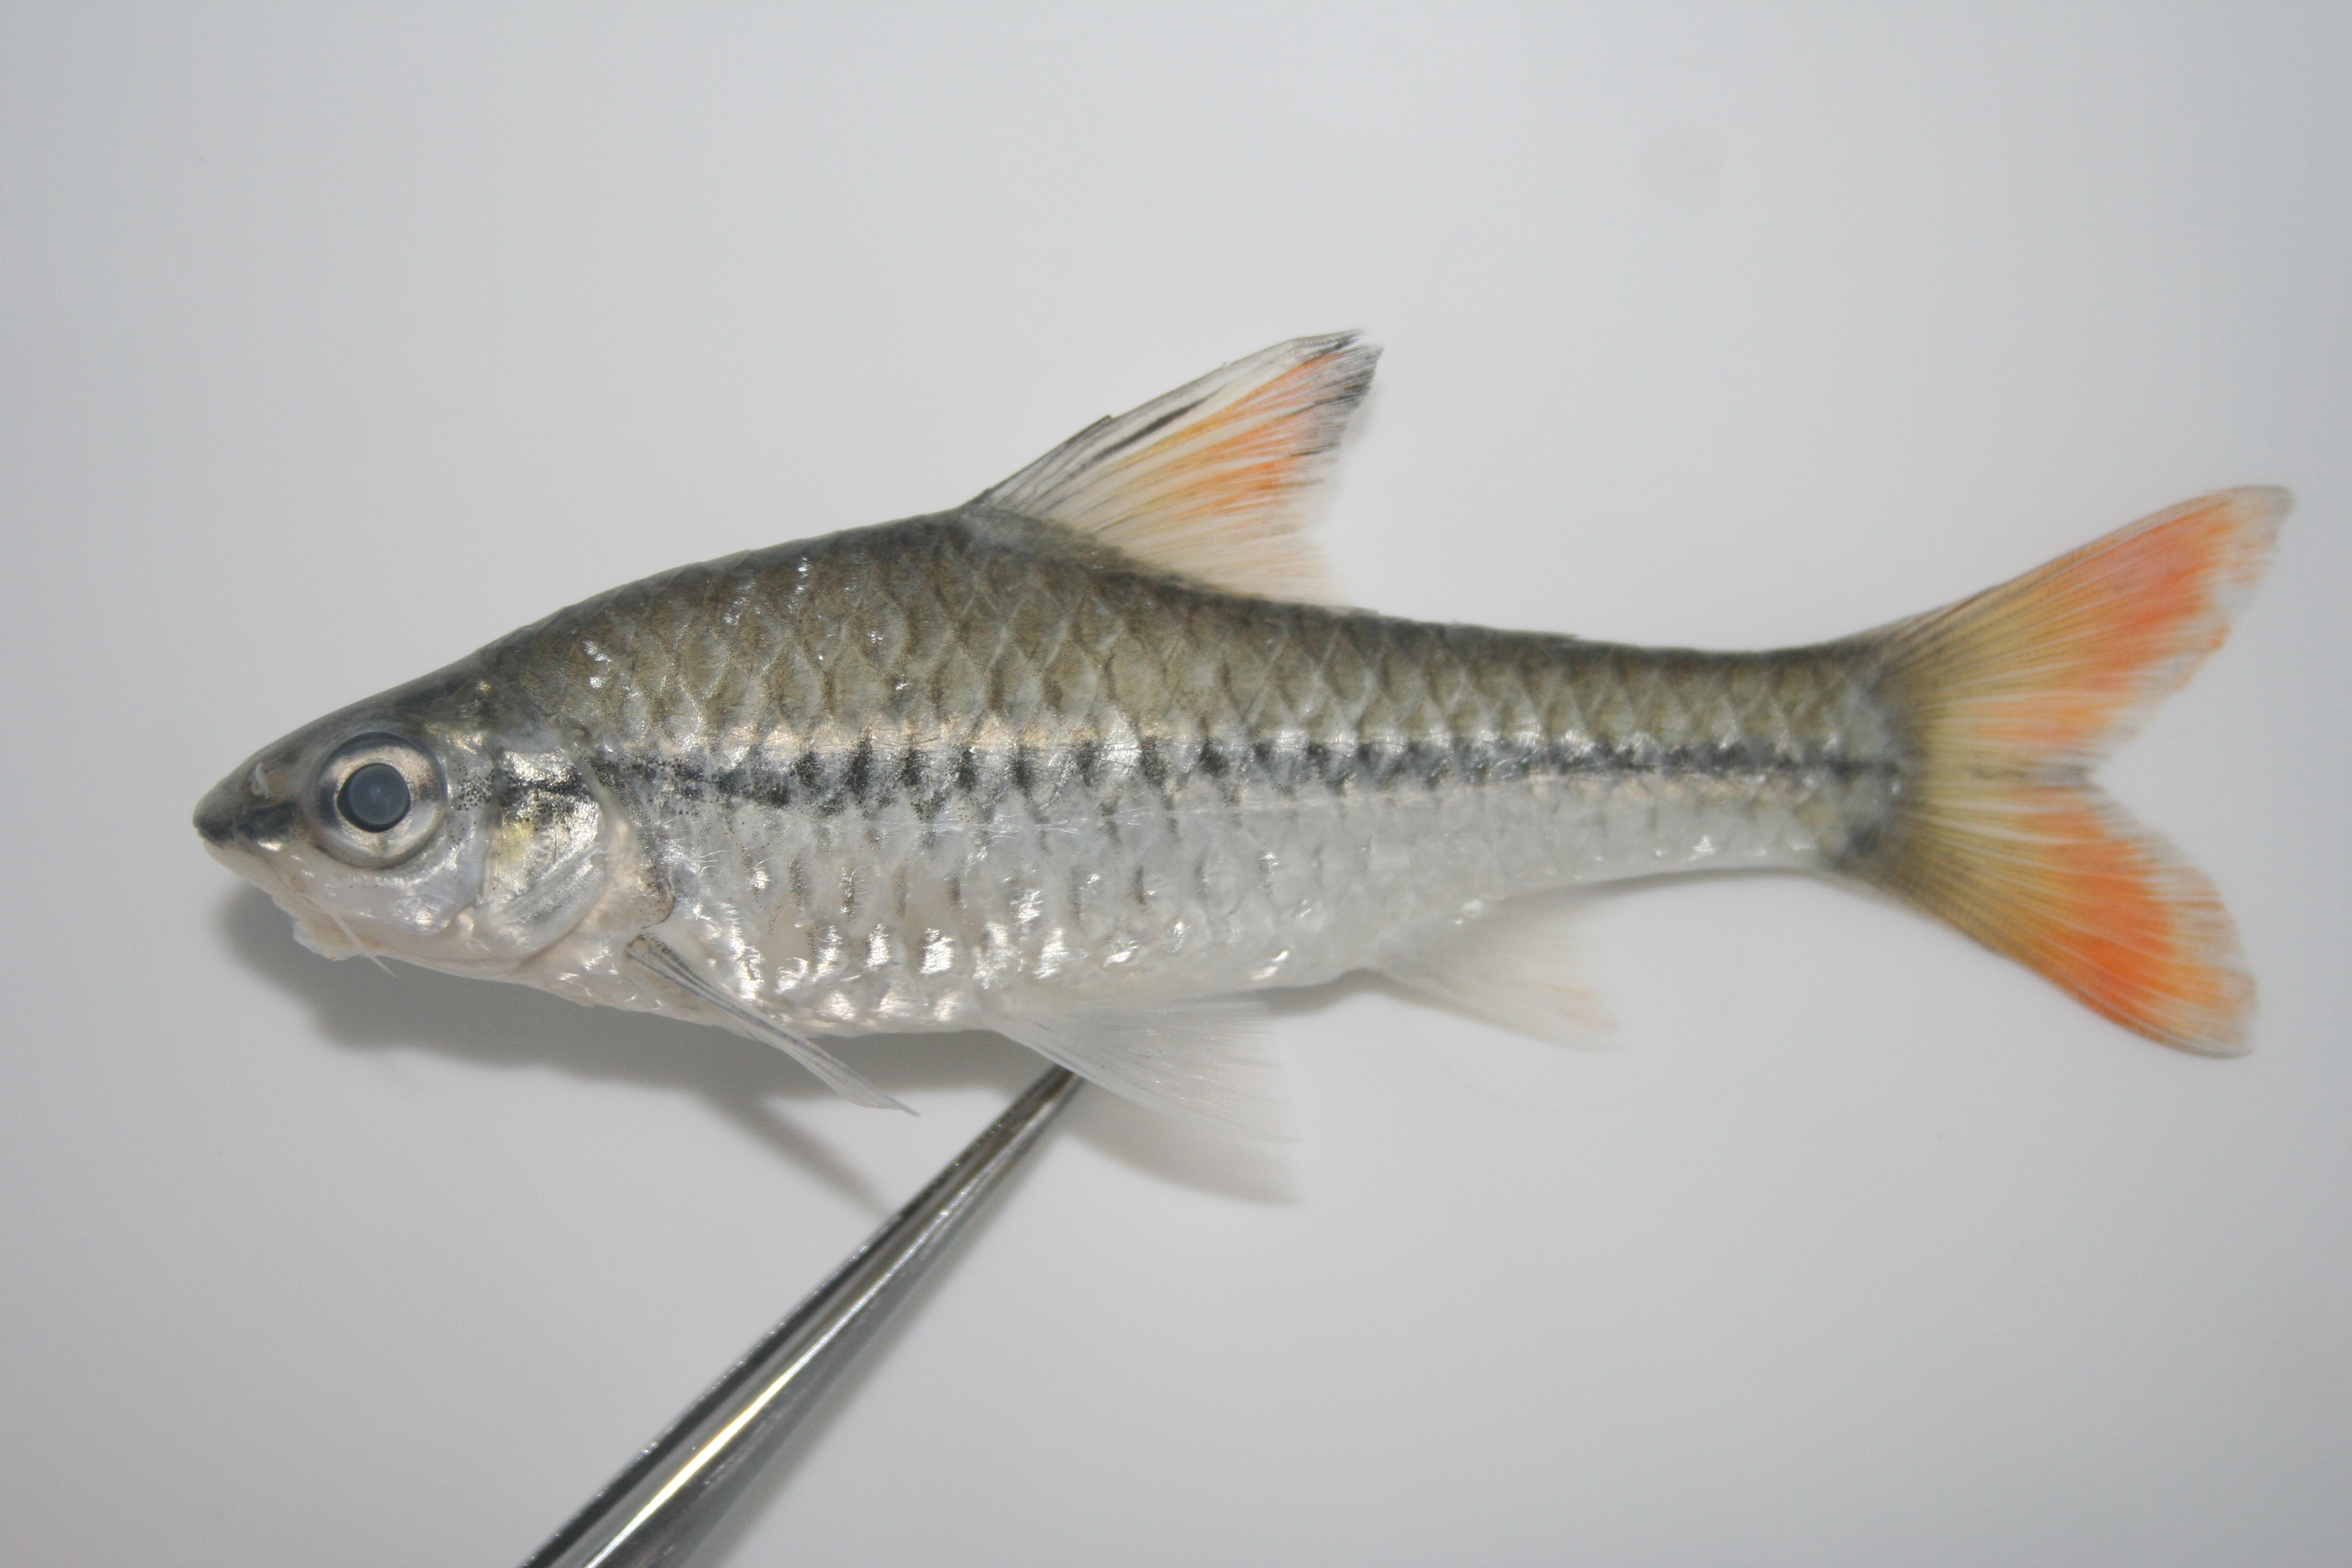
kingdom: Animalia
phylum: Chordata
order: Cypriniformes
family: Cyprinidae
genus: Enteromius
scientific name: Enteromius holotaenia
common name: Spotscale barb
